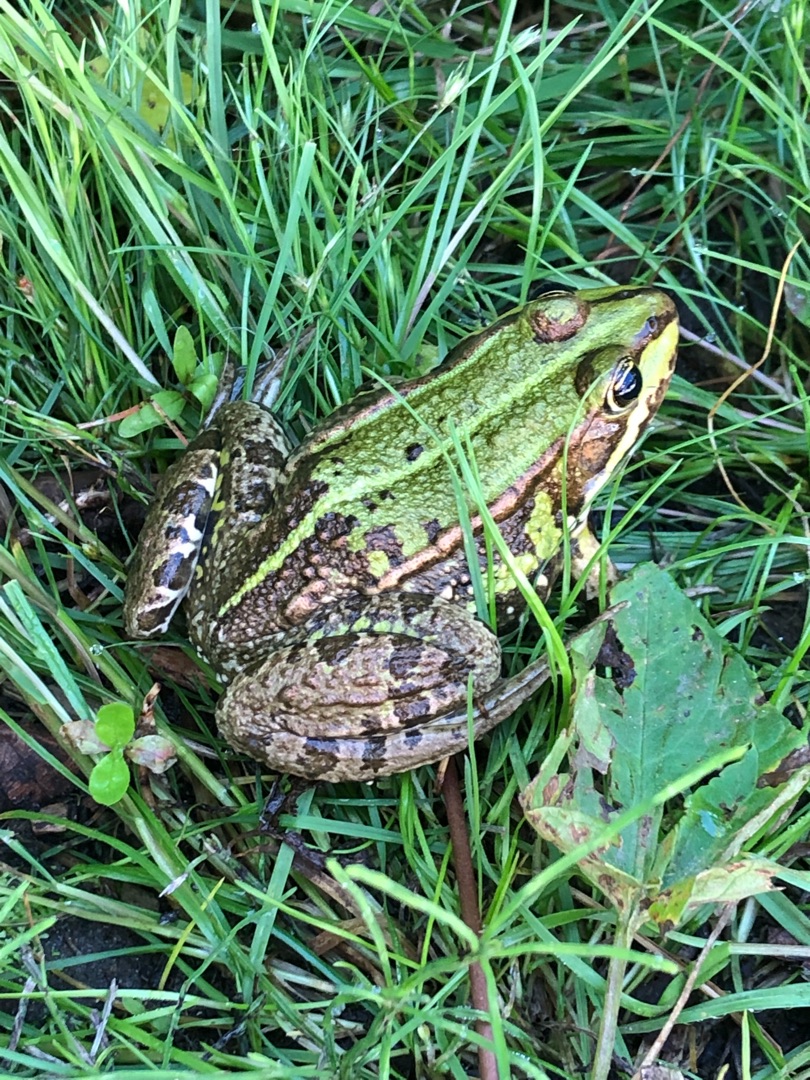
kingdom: Animalia
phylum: Chordata
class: Amphibia
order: Anura
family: Ranidae
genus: Pelophylax
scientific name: Pelophylax lessonae
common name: Grøn frø
